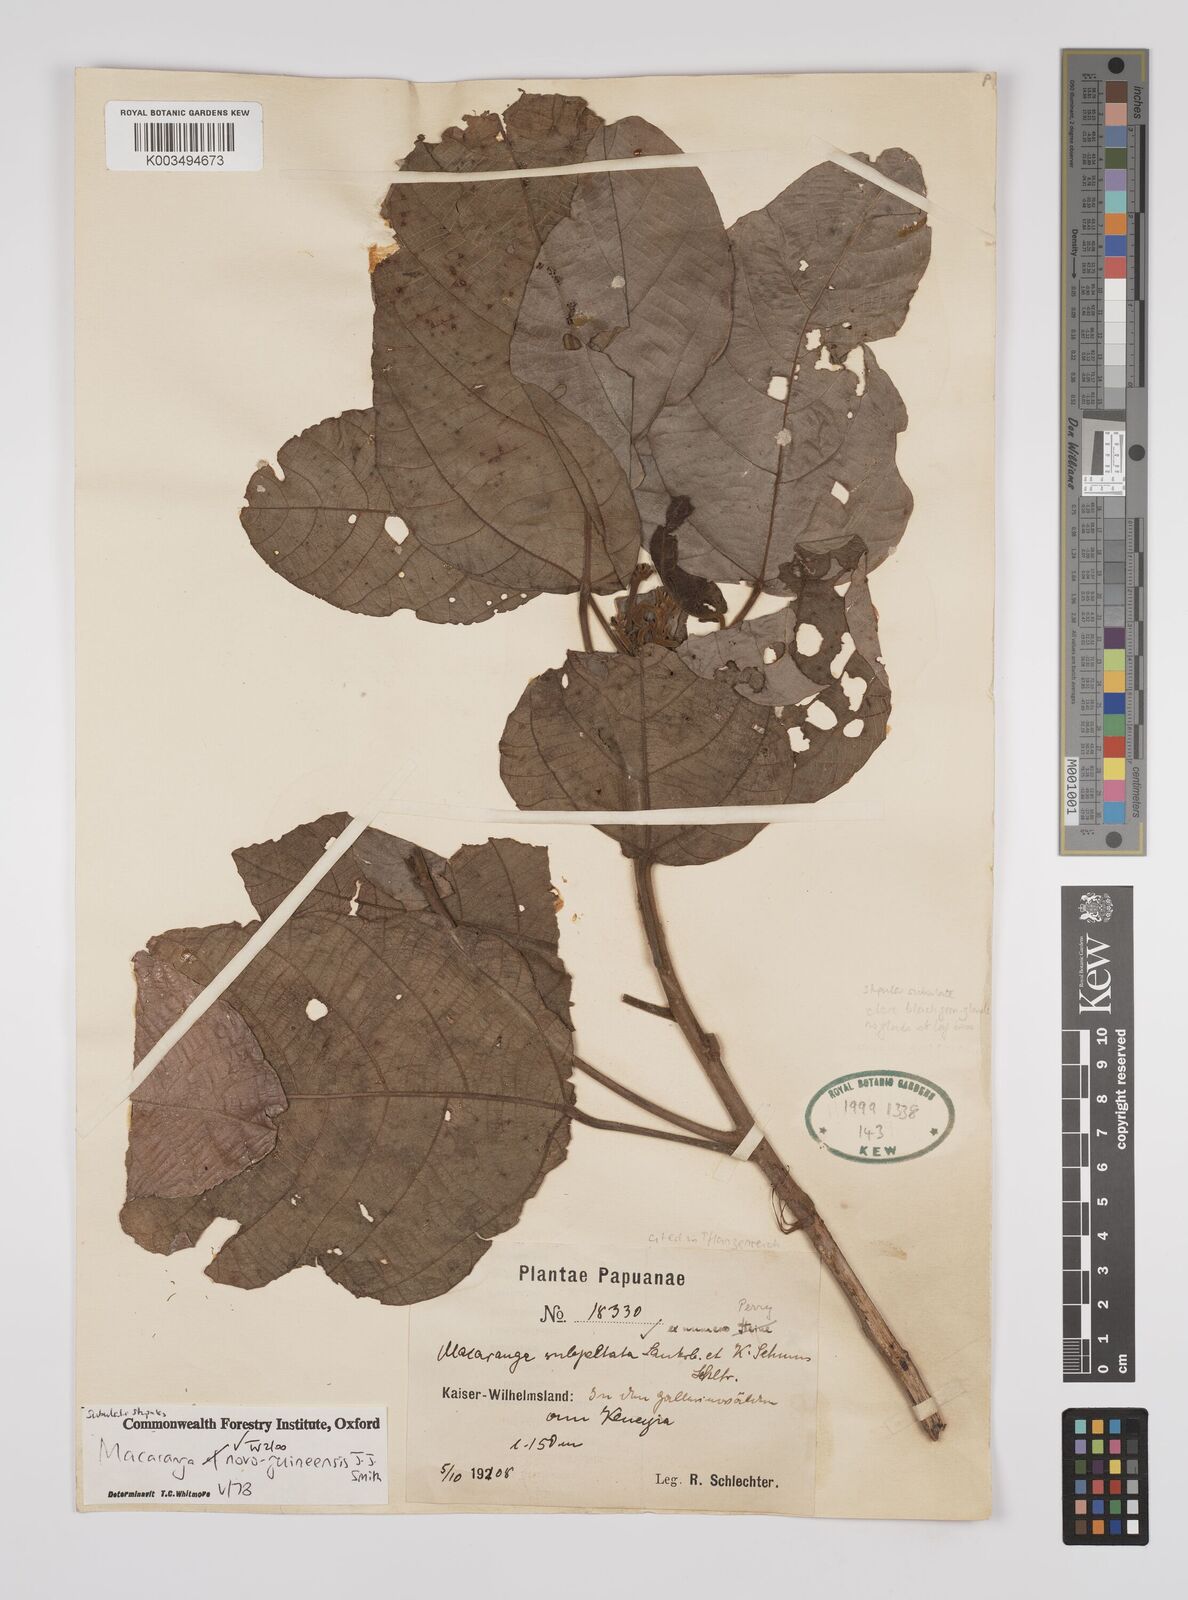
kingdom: Plantae
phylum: Tracheophyta
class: Magnoliopsida
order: Malpighiales
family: Euphorbiaceae
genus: Macaranga
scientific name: Macaranga novoguineensis
